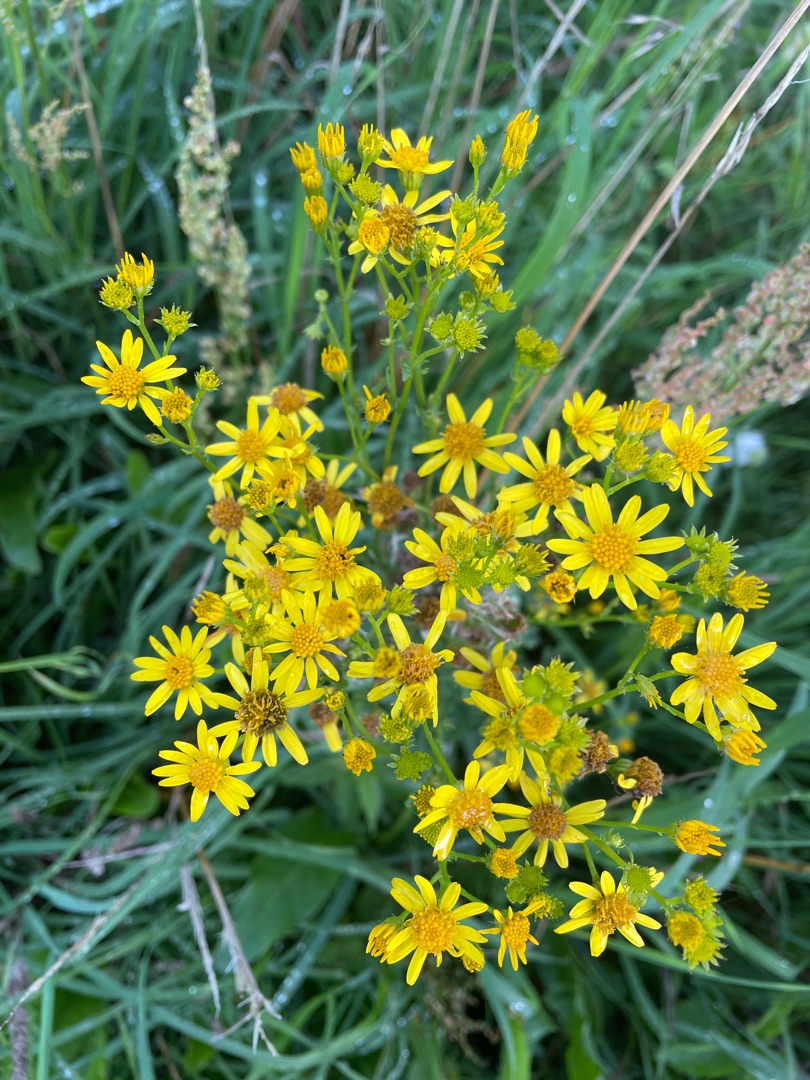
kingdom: Plantae
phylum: Tracheophyta
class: Magnoliopsida
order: Asterales
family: Asteraceae
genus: Jacobaea
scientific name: Jacobaea vulgaris
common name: Eng-brandbæger
